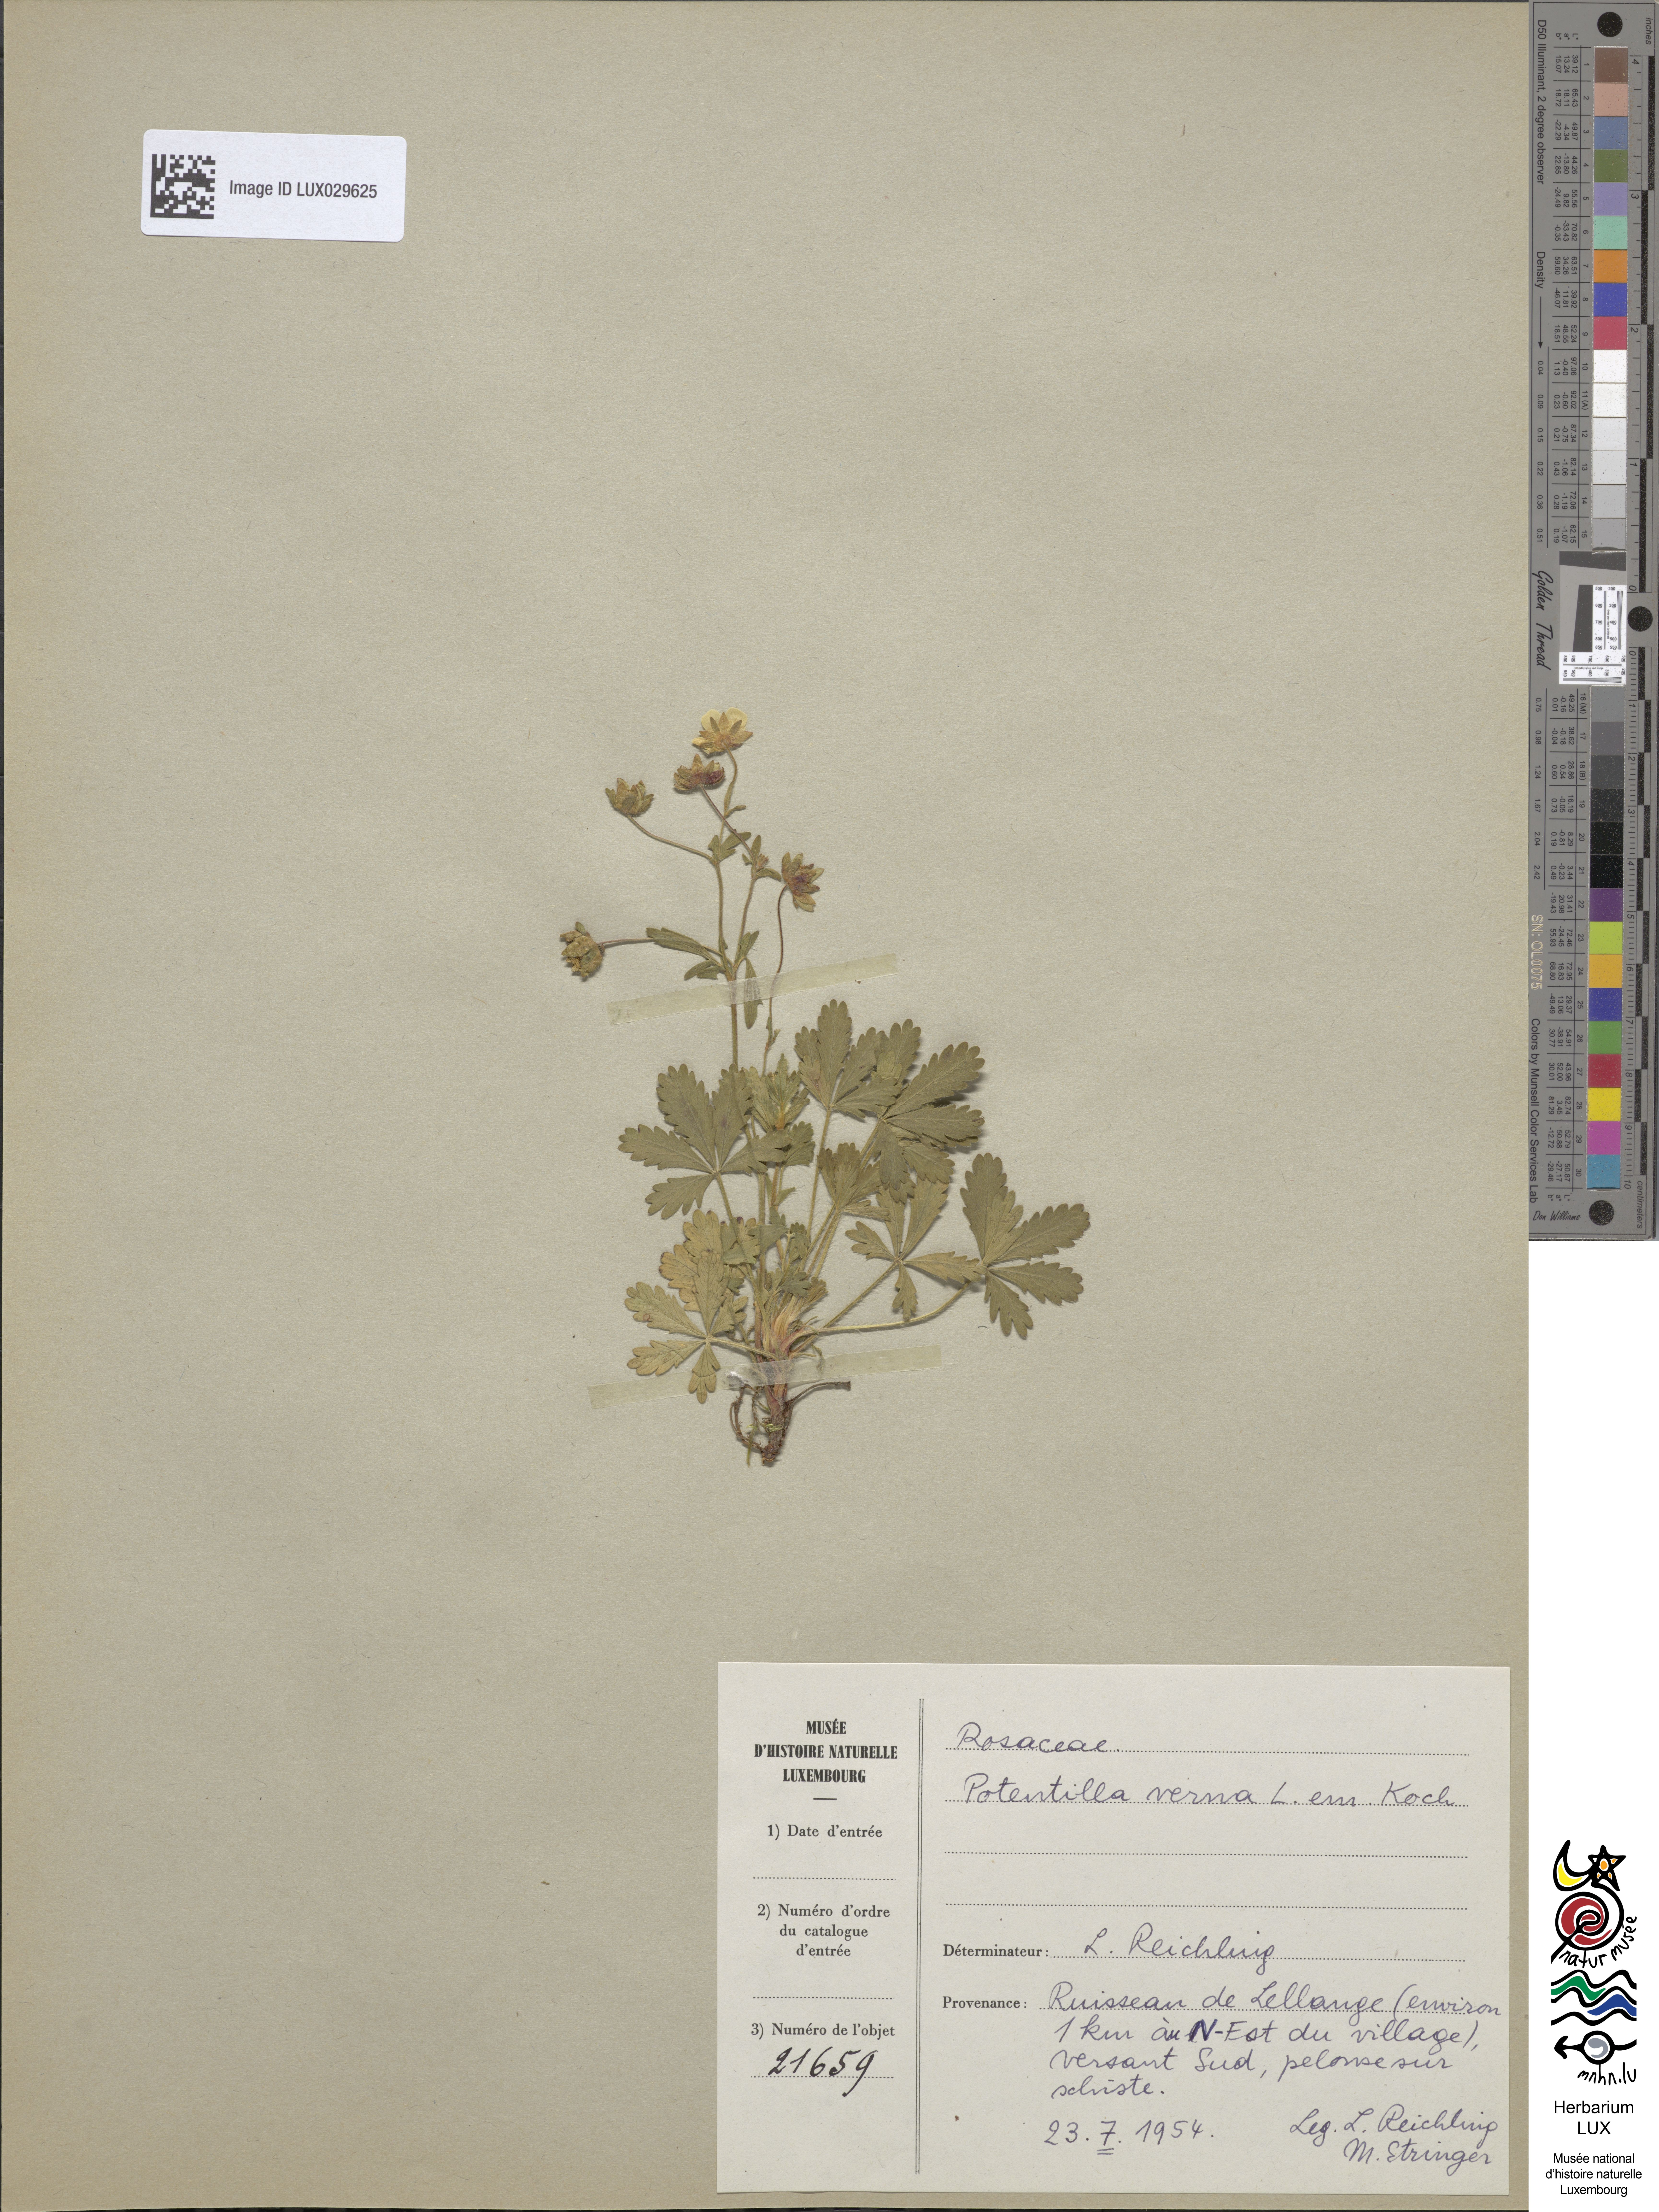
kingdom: Plantae
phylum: Tracheophyta
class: Magnoliopsida
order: Rosales
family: Rosaceae
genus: Potentilla
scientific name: Potentilla verna
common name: Spring cinquefoil
